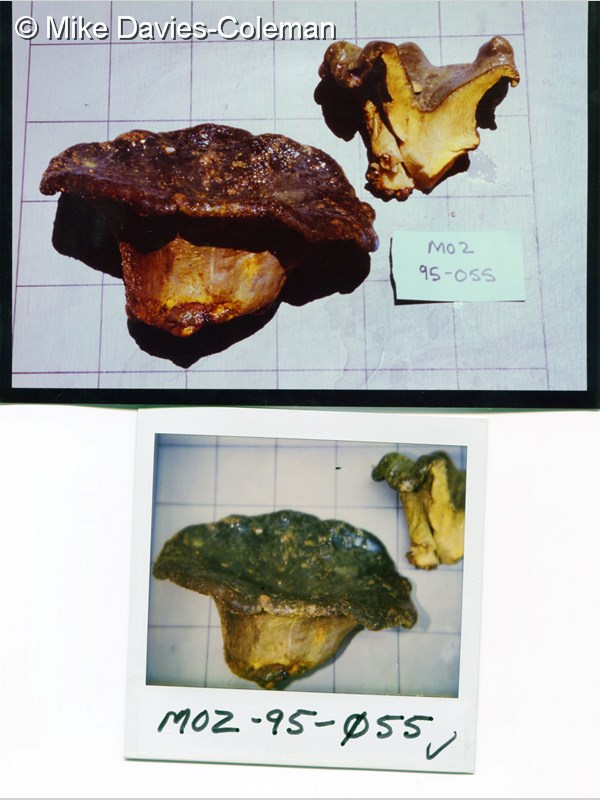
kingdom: Animalia
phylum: Cnidaria
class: Anthozoa
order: Malacalcyonacea
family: Sarcophytidae
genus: Sarcophyton
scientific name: Sarcophyton
